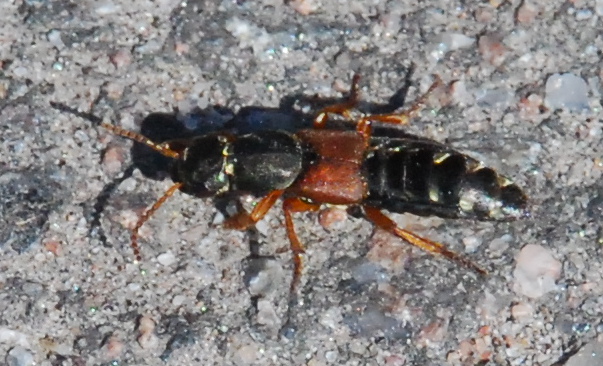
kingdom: Animalia
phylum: Arthropoda
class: Insecta
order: Coleoptera
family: Staphylinidae
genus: Staphylinus
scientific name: Staphylinus caesareus
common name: Staph beetle
